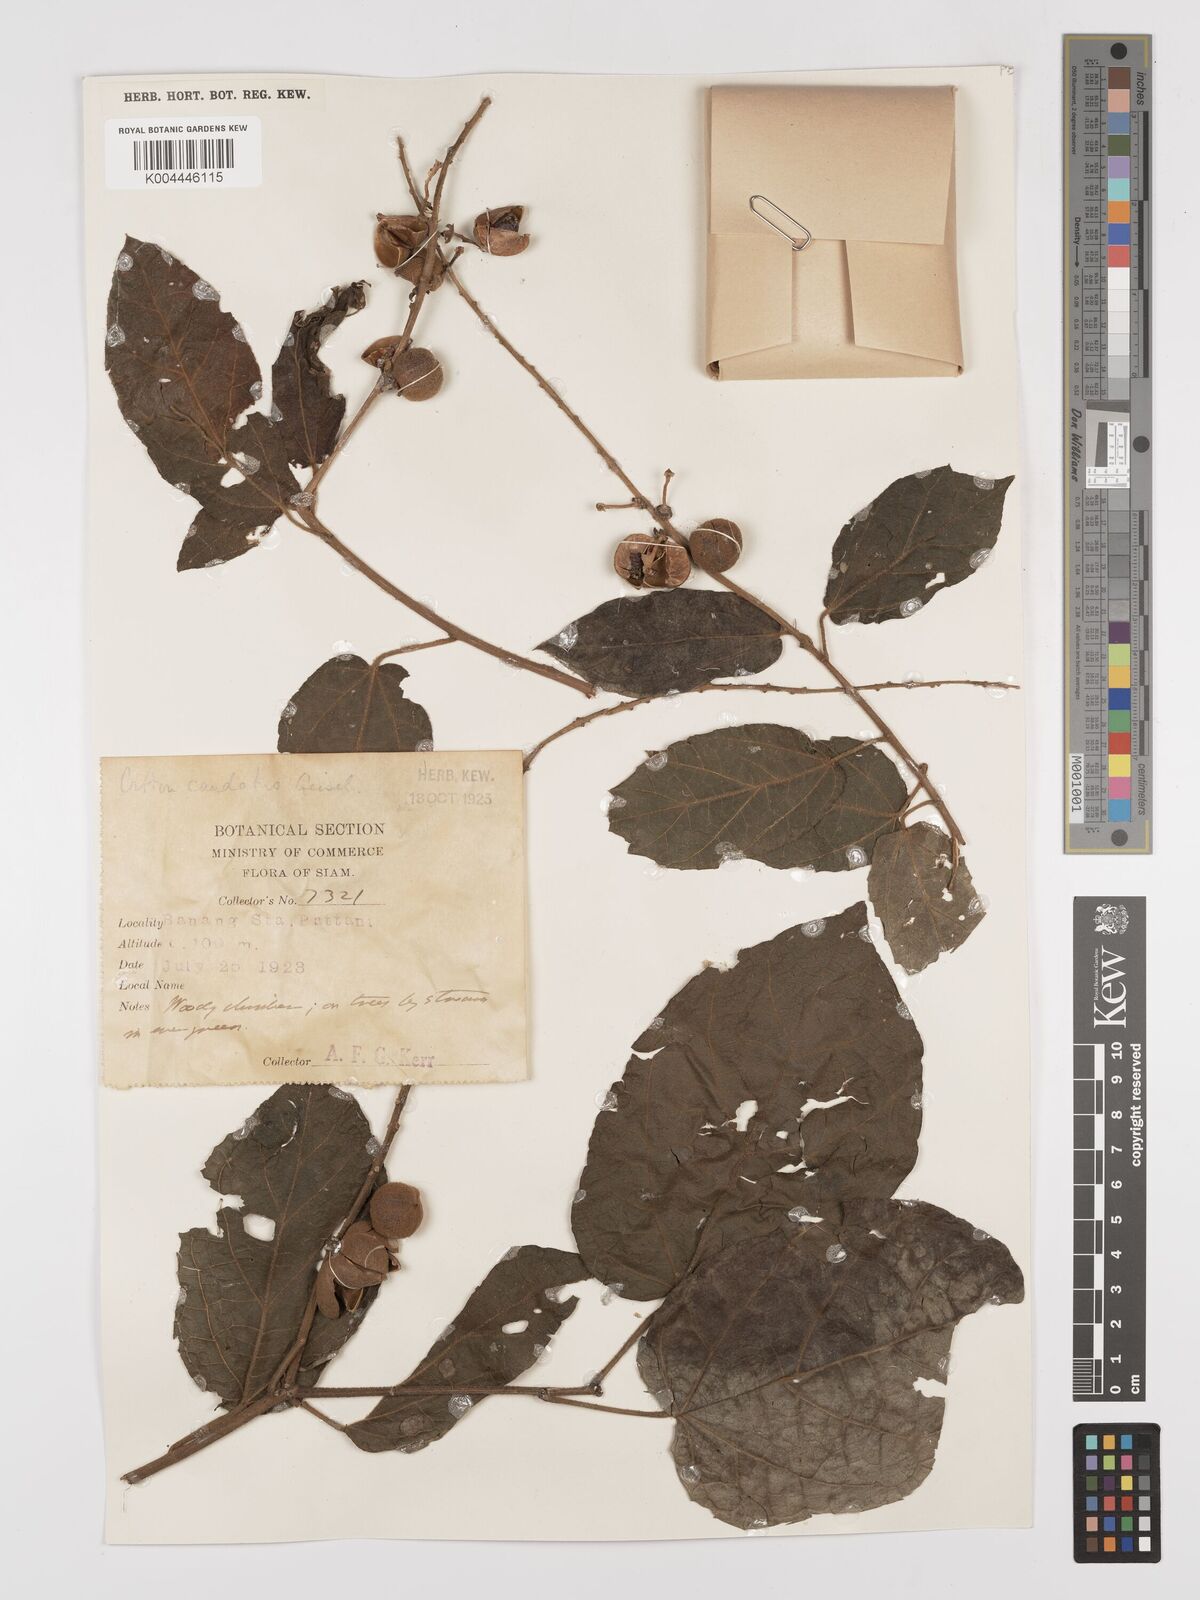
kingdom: Plantae
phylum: Tracheophyta
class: Magnoliopsida
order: Malpighiales
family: Euphorbiaceae
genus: Croton
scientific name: Croton caudatus
